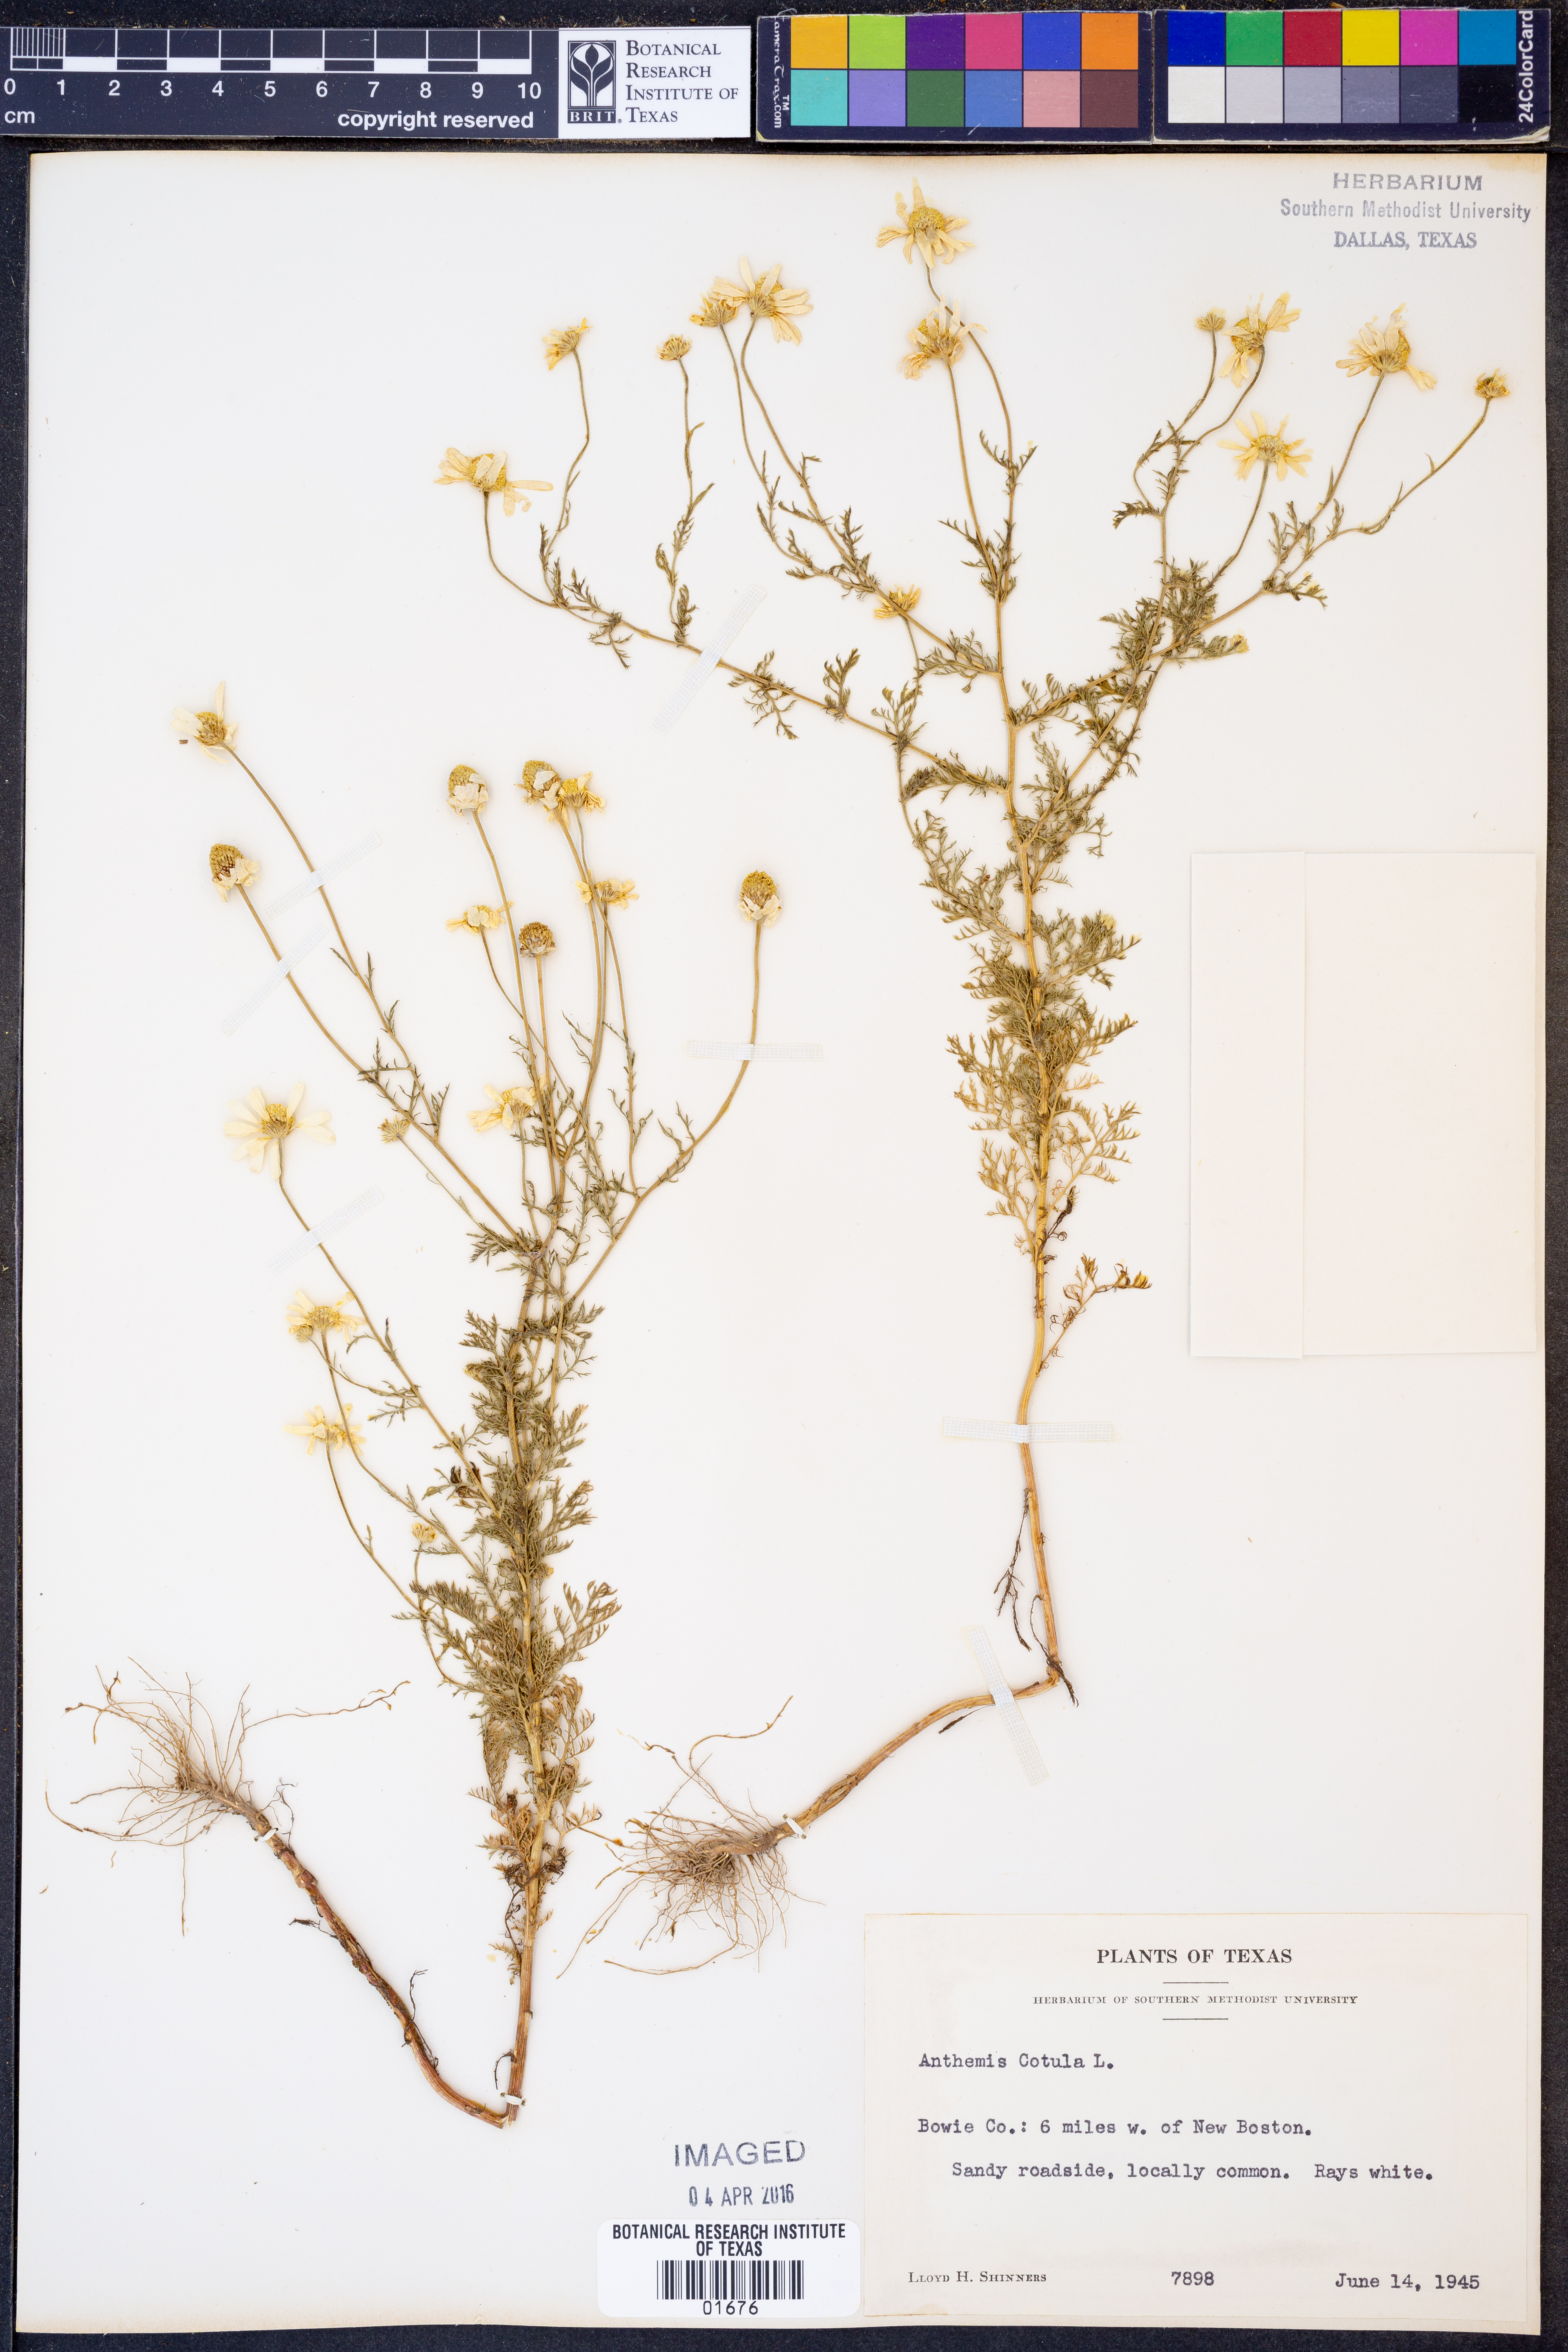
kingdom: Plantae
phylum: Tracheophyta
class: Magnoliopsida
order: Asterales
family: Asteraceae
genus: Anthemis
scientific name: Anthemis cotula
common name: Stinking chamomile
